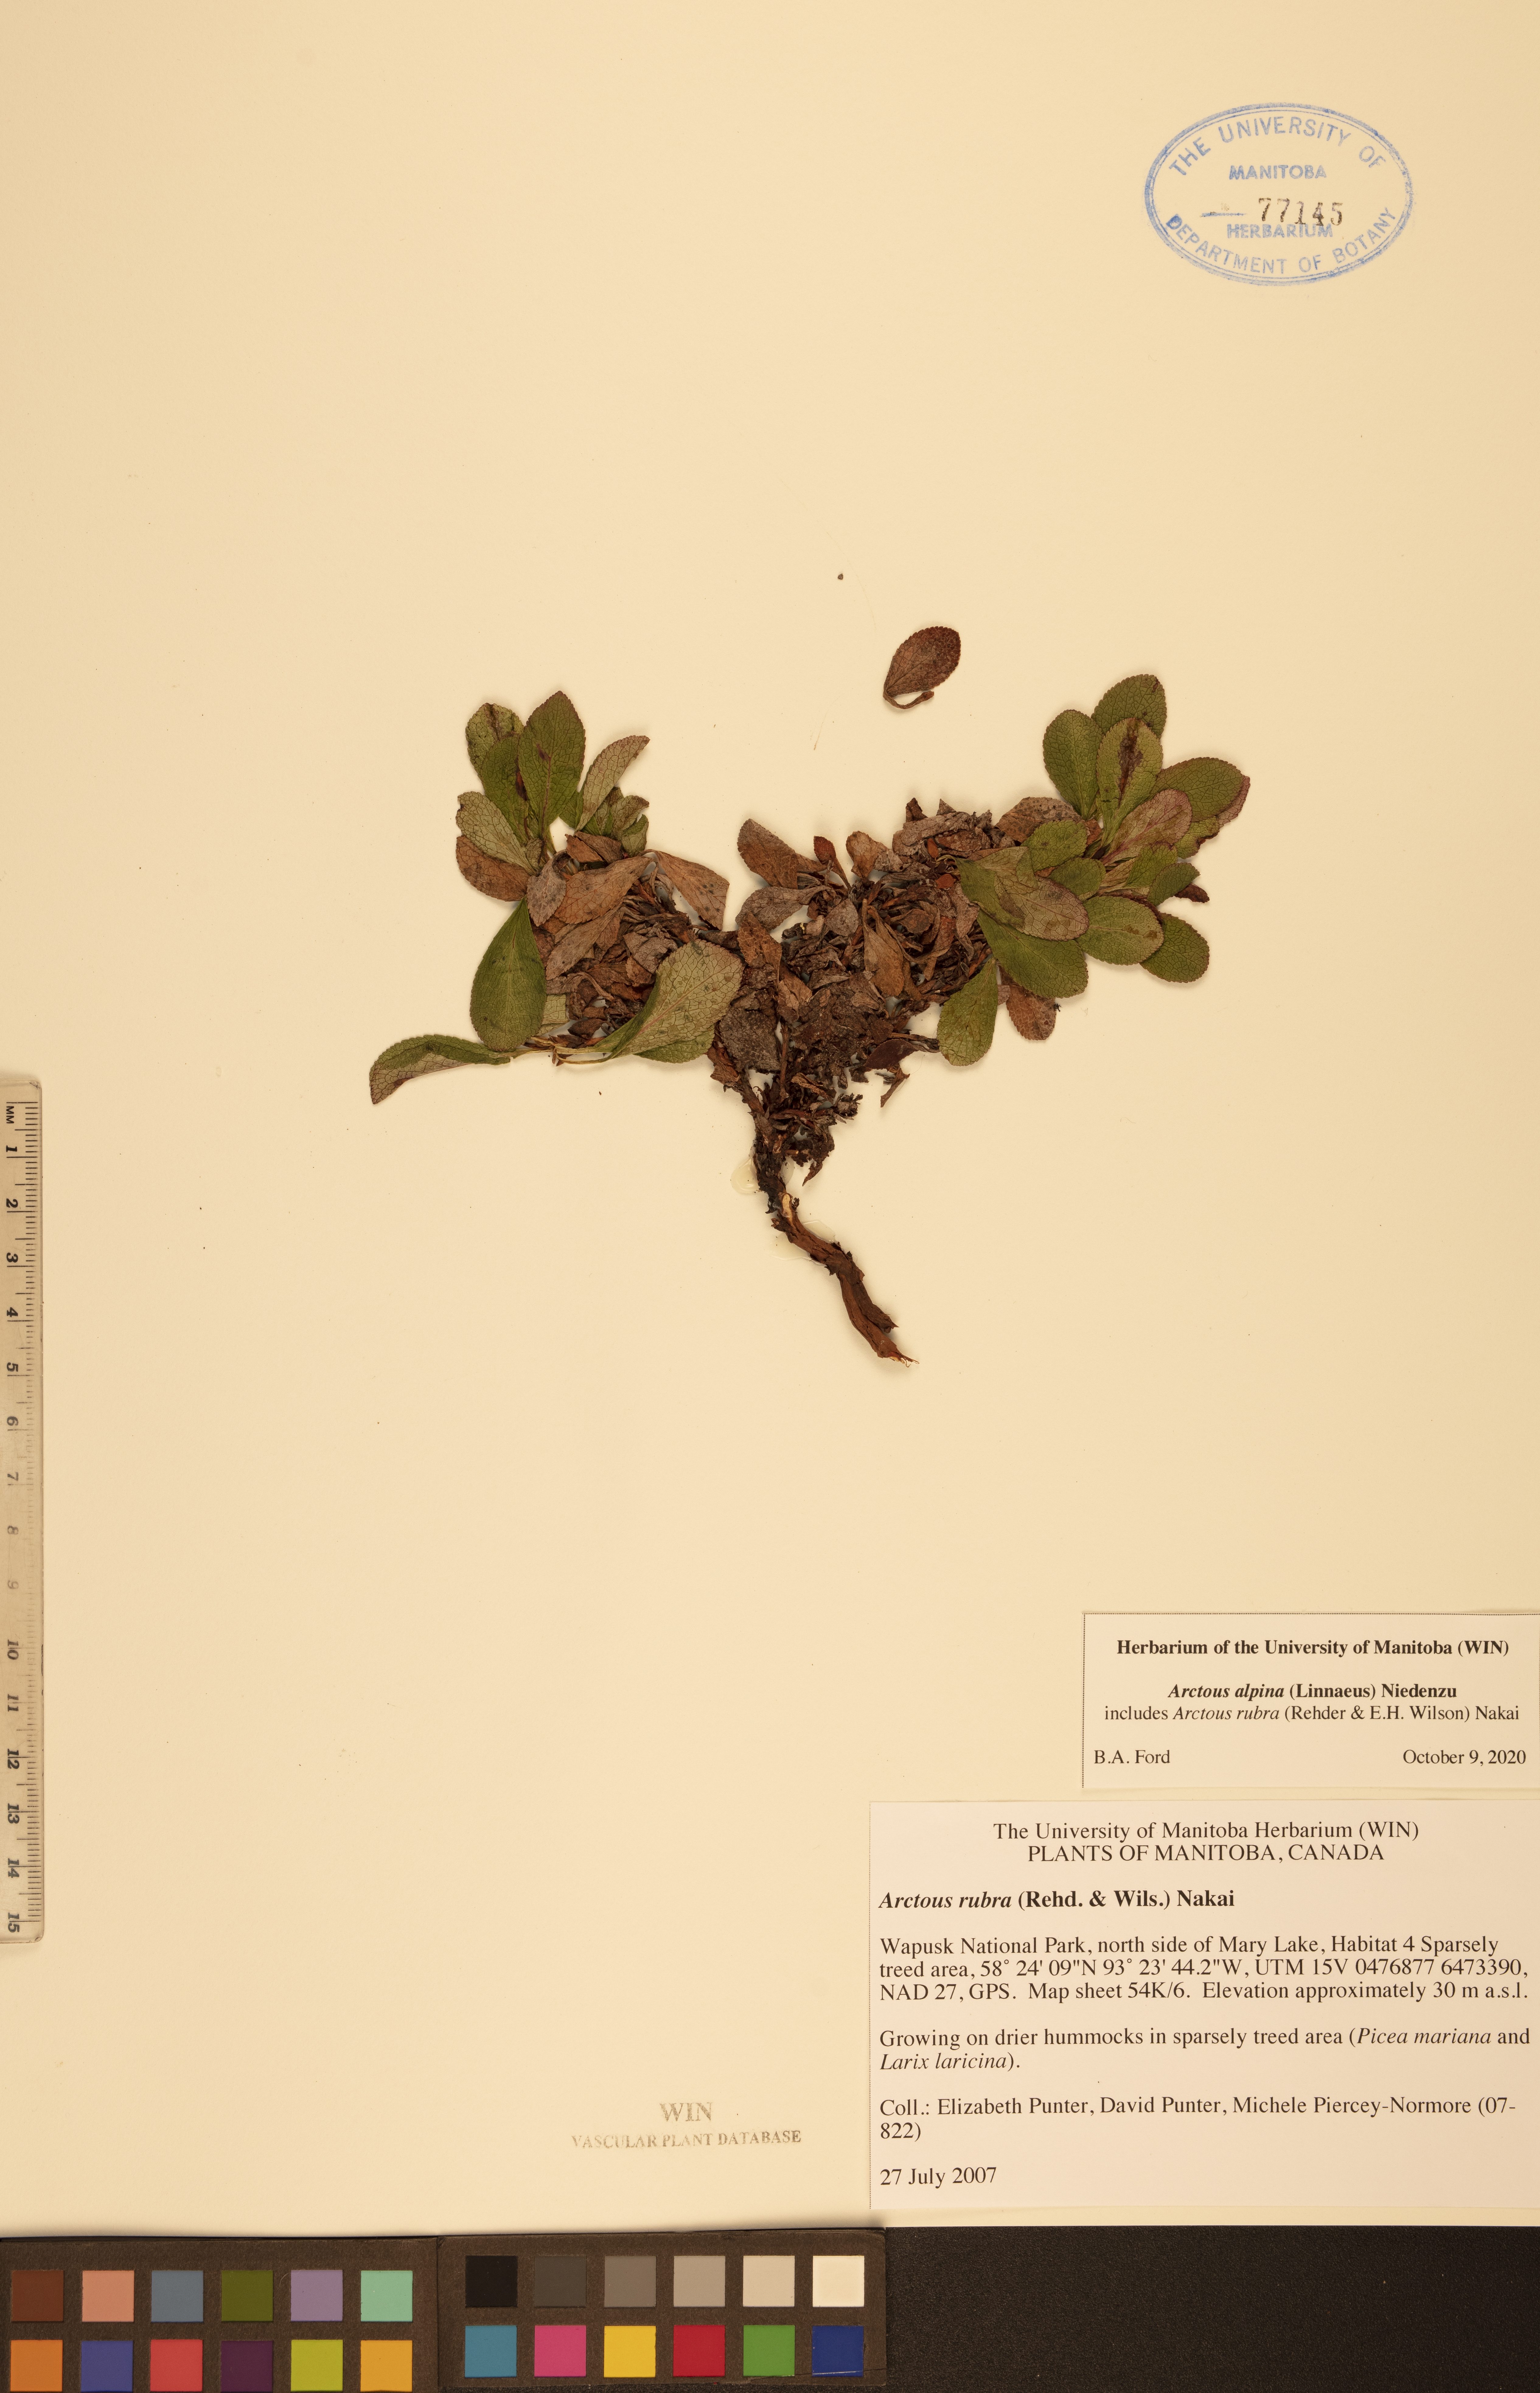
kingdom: Plantae
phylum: Tracheophyta
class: Magnoliopsida
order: Ericales
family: Ericaceae
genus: Arctostaphylos
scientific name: Arctostaphylos alpinus
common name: Alpine bearberry
